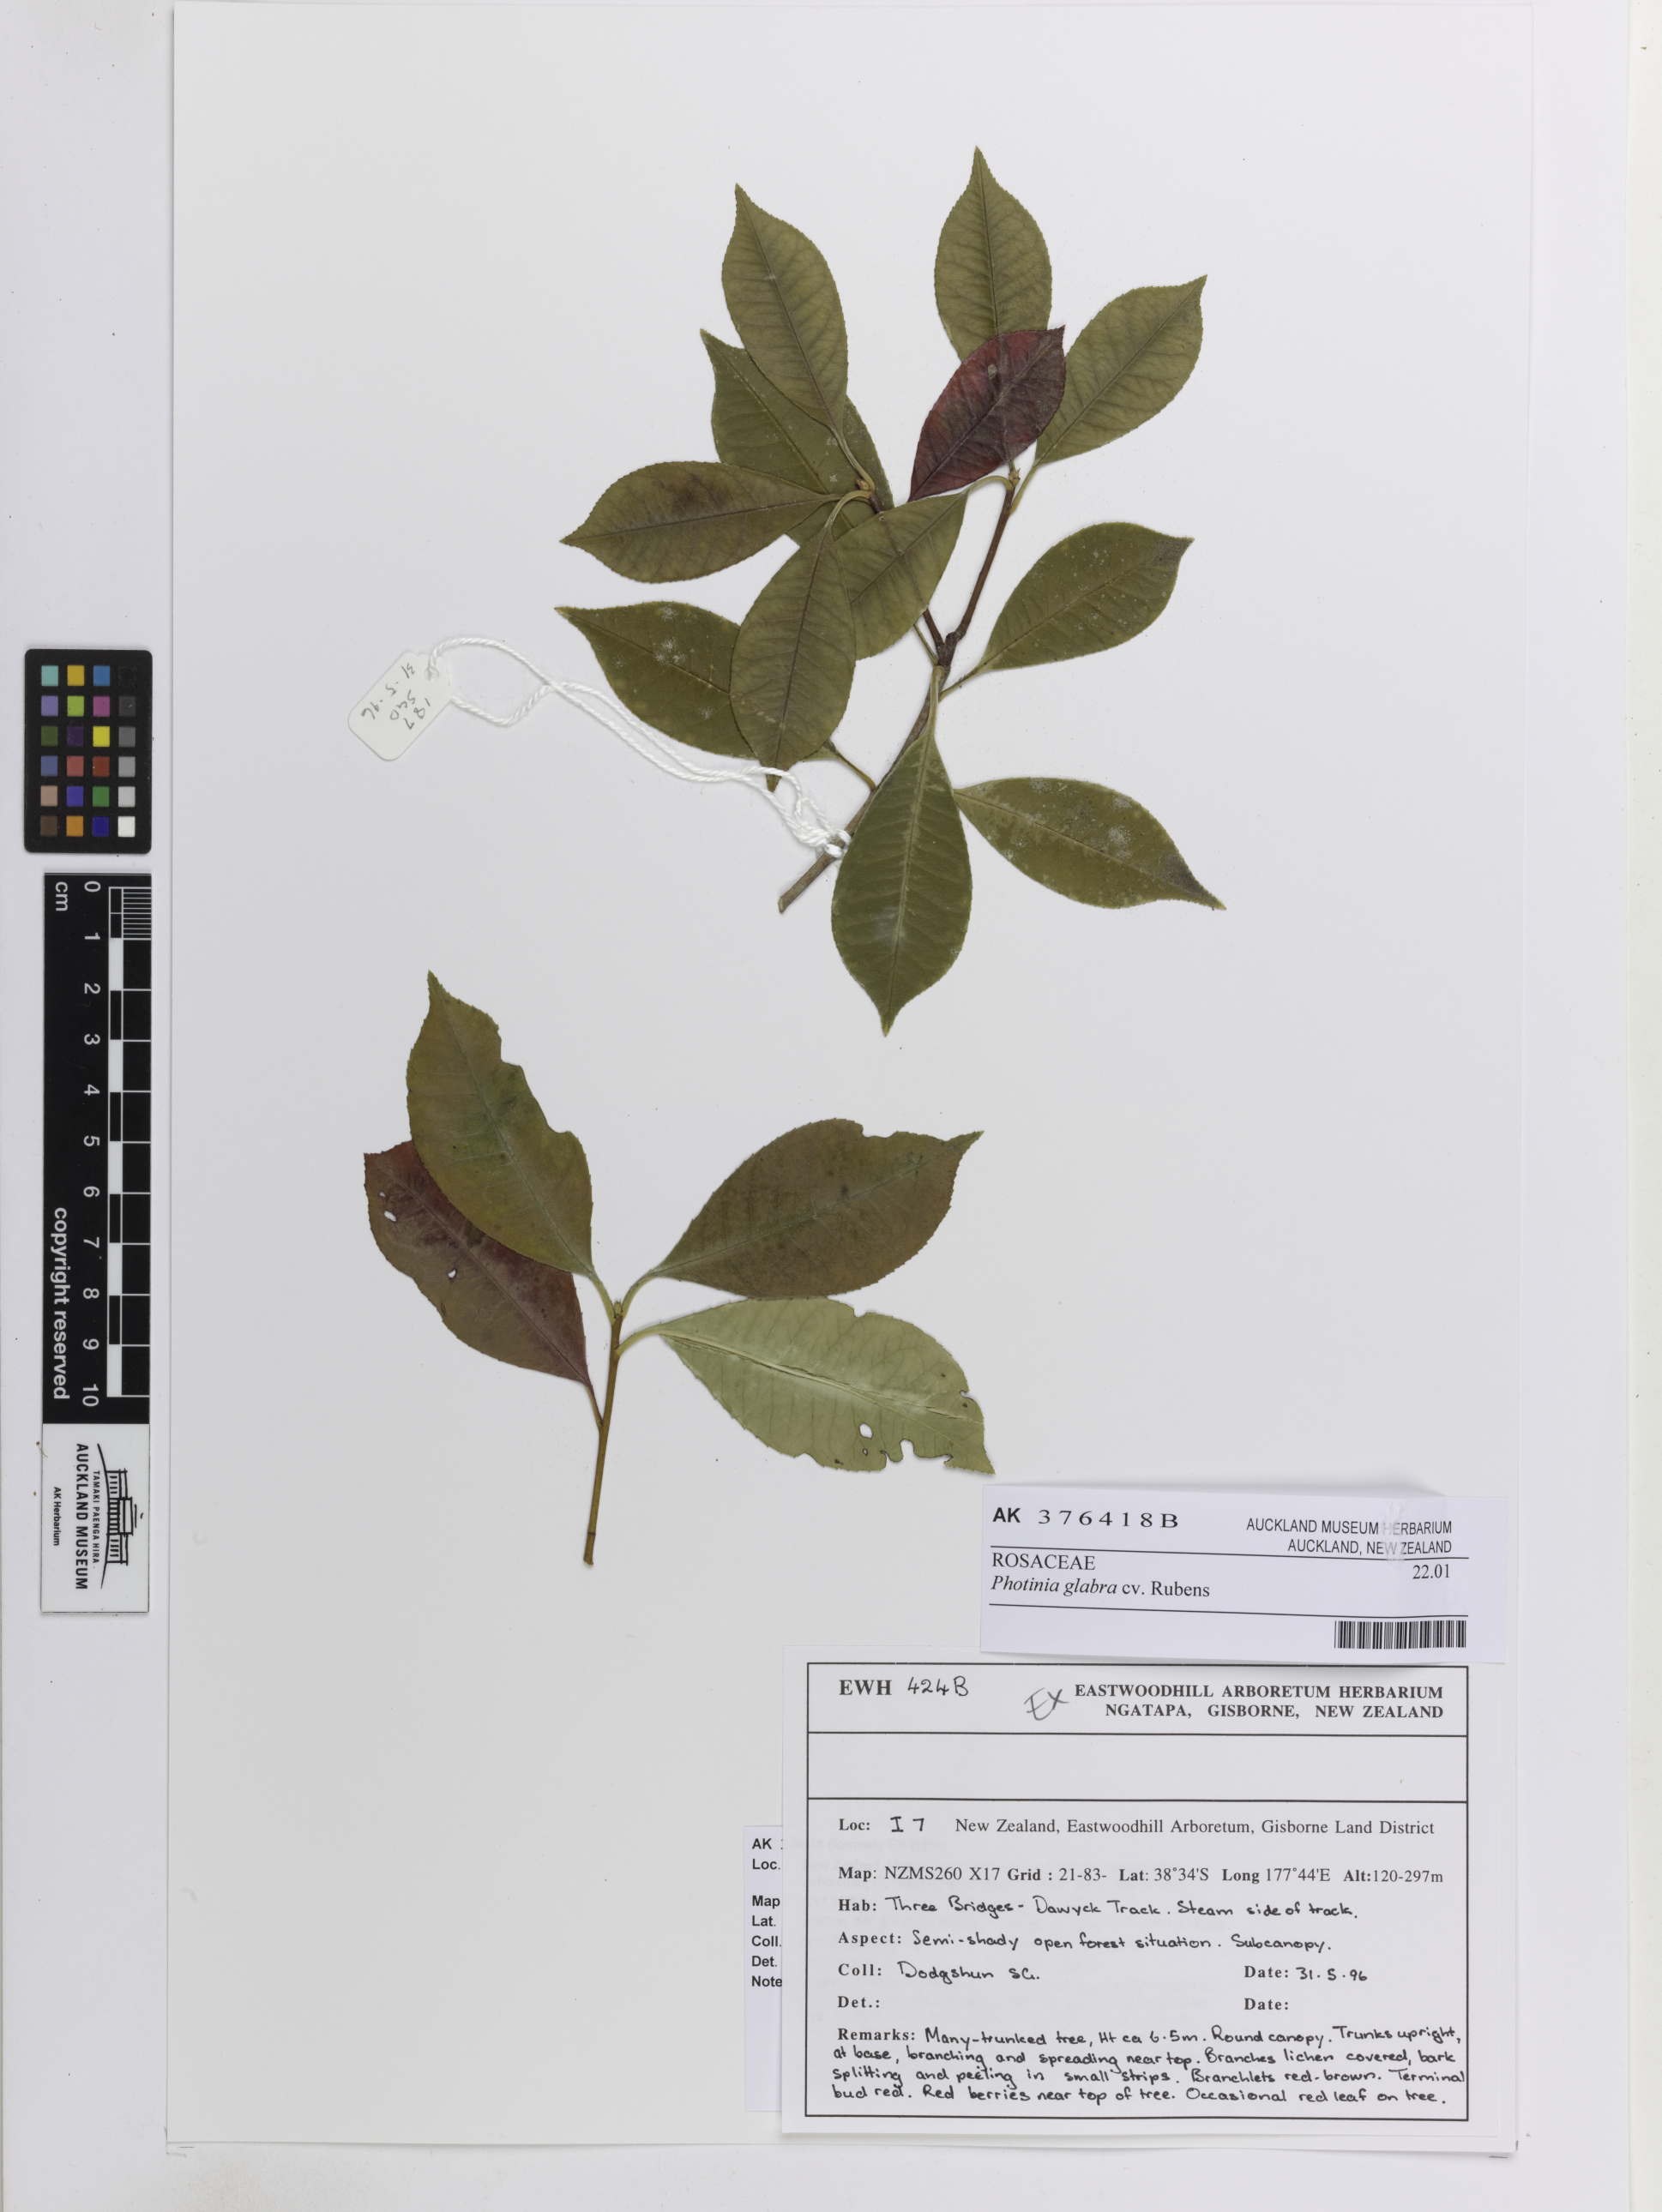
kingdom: Plantae
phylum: Tracheophyta
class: Magnoliopsida
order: Rosales
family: Rosaceae
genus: Photinia
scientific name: Photinia glabra
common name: Japanese photinia
